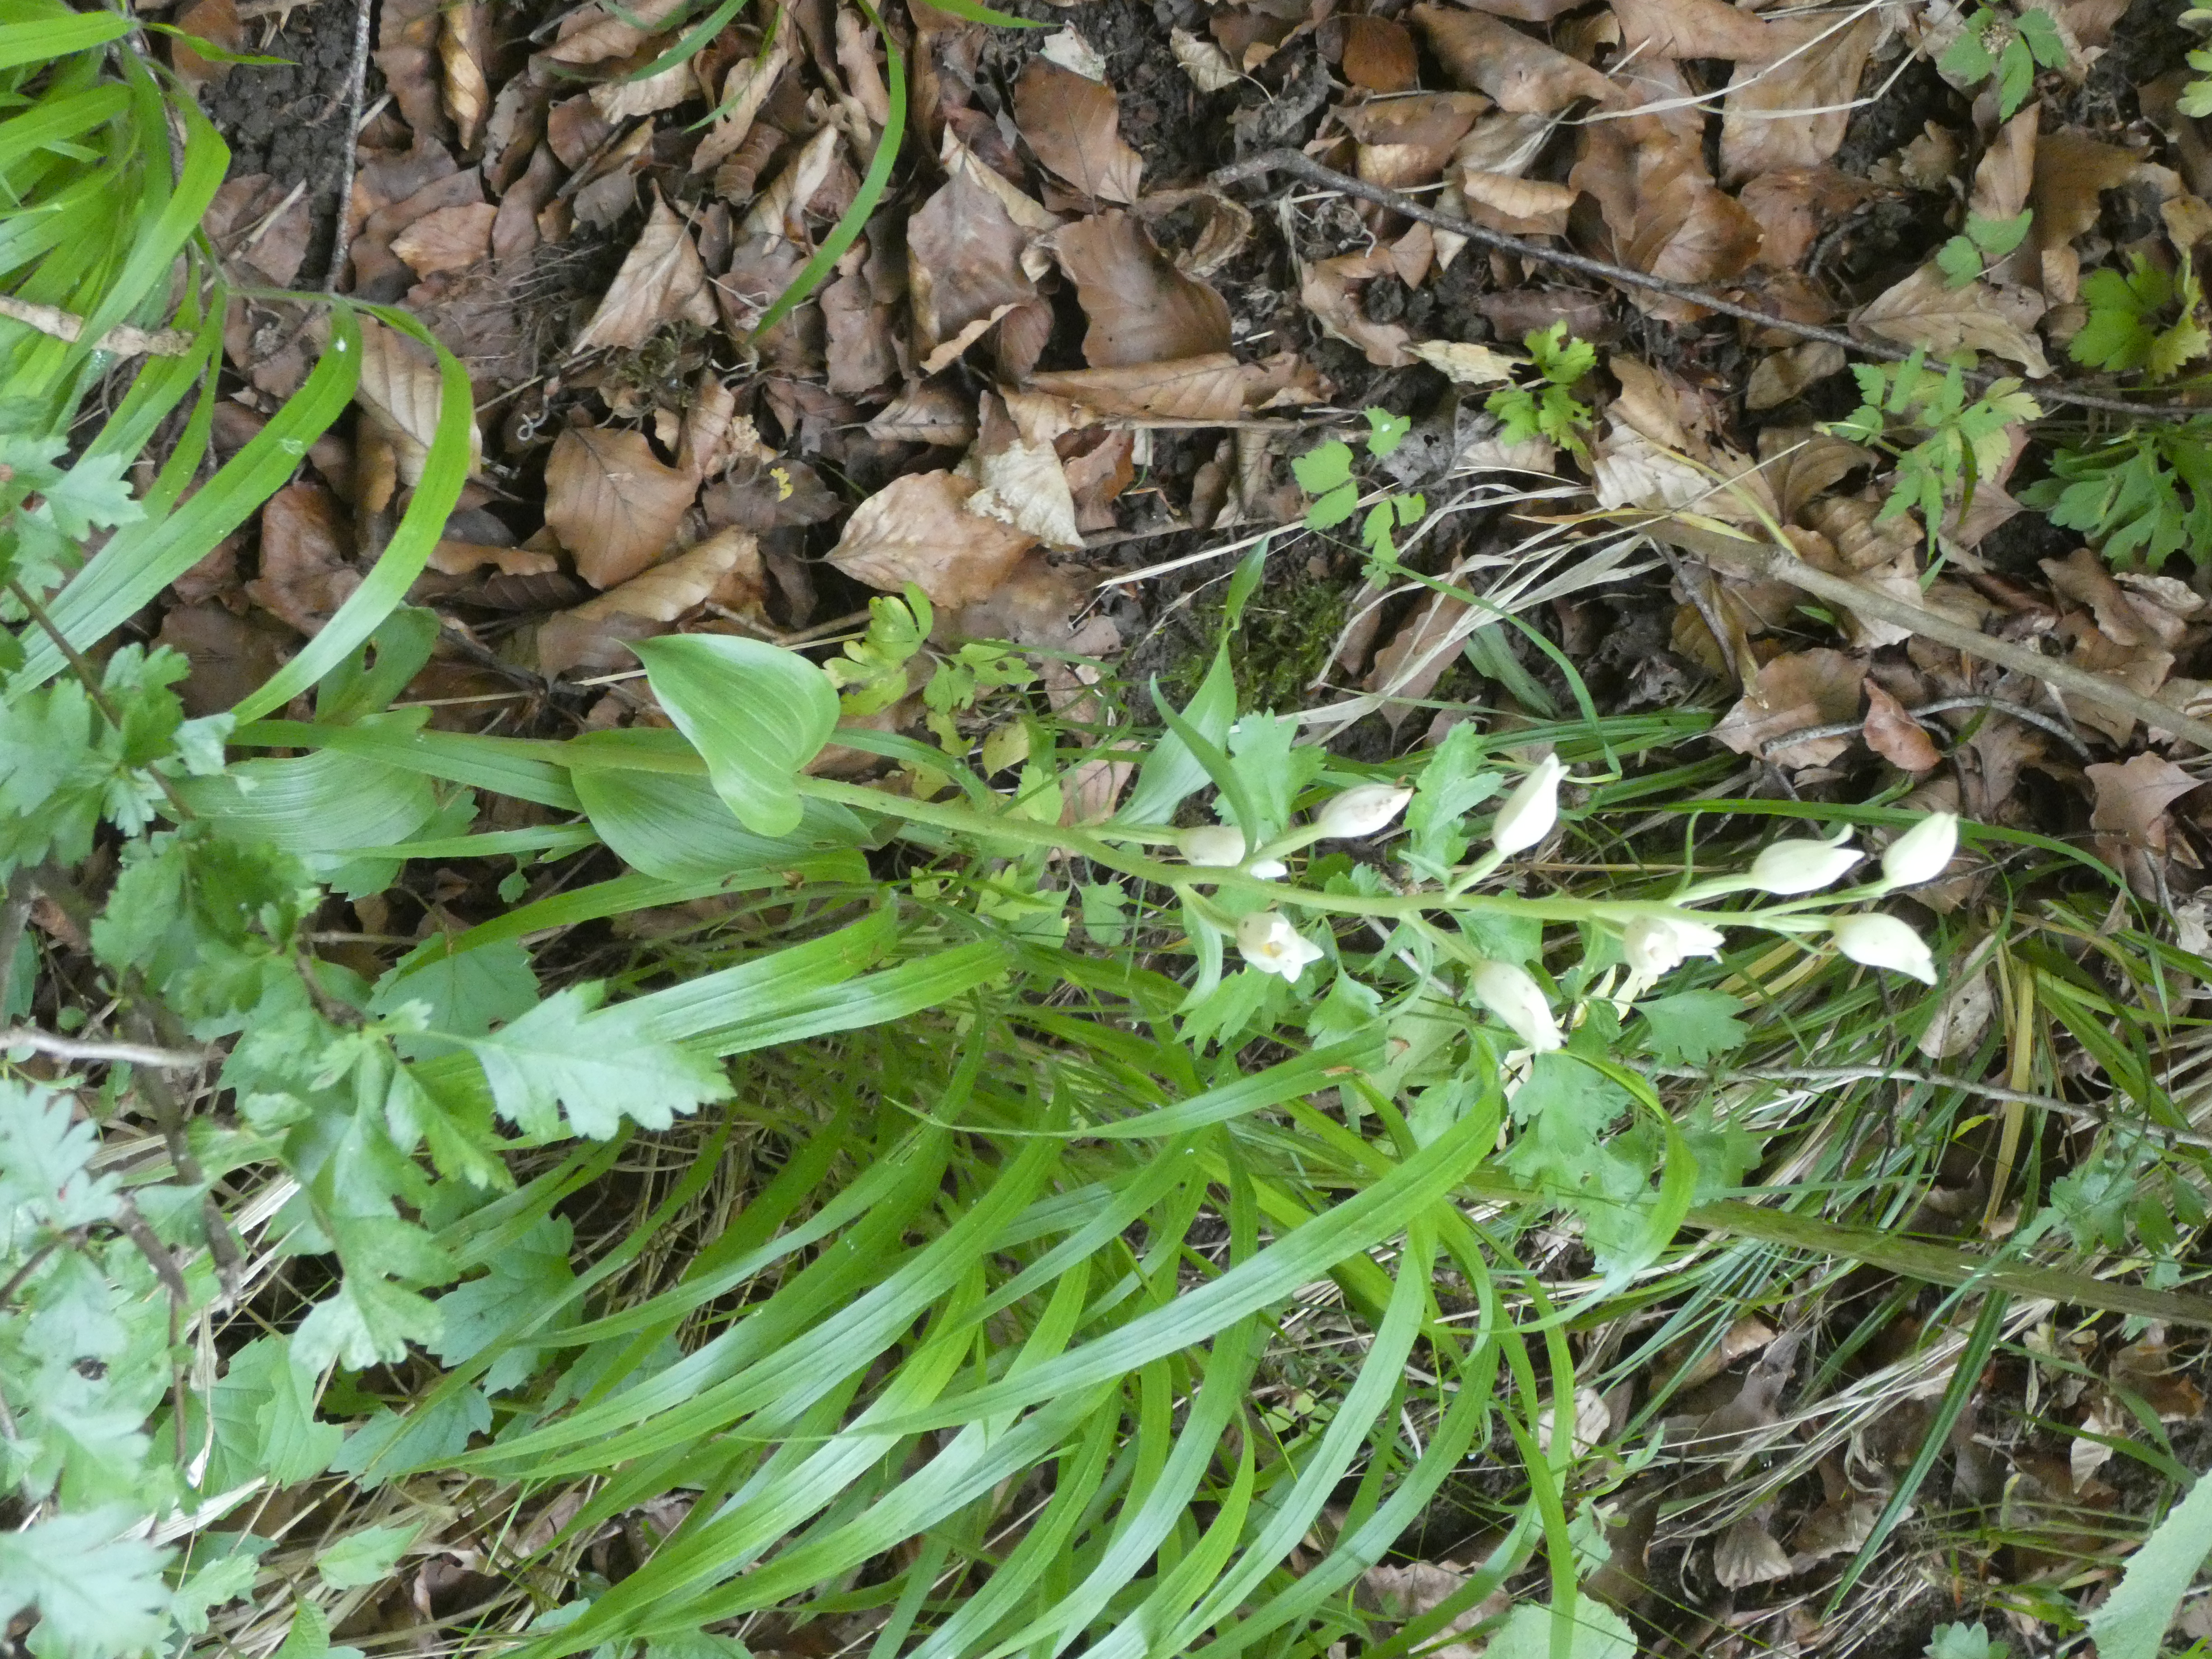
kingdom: Plantae
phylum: Tracheophyta
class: Liliopsida
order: Asparagales
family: Orchidaceae
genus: Cephalanthera
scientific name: Cephalanthera damasonium
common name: Hvidgul skovlilje
